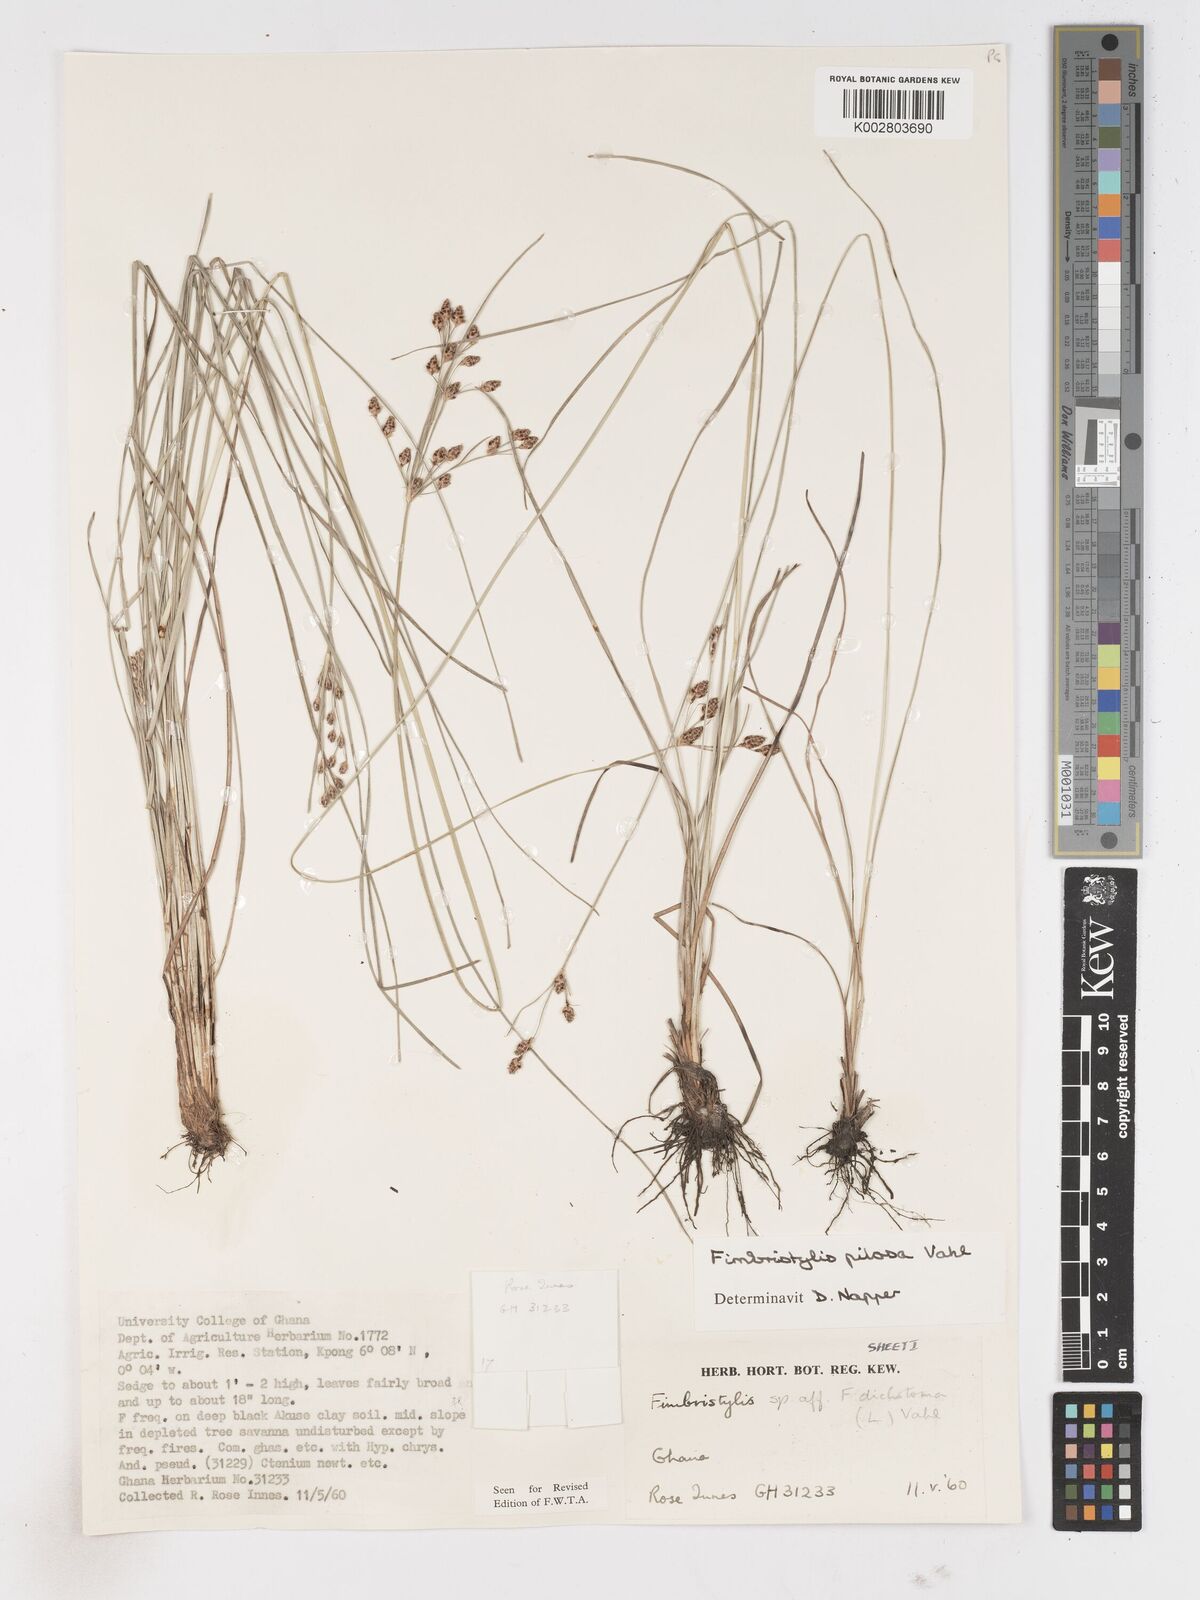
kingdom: Plantae
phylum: Tracheophyta
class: Liliopsida
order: Poales
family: Cyperaceae
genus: Fimbristylis
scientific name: Fimbristylis pilosa
